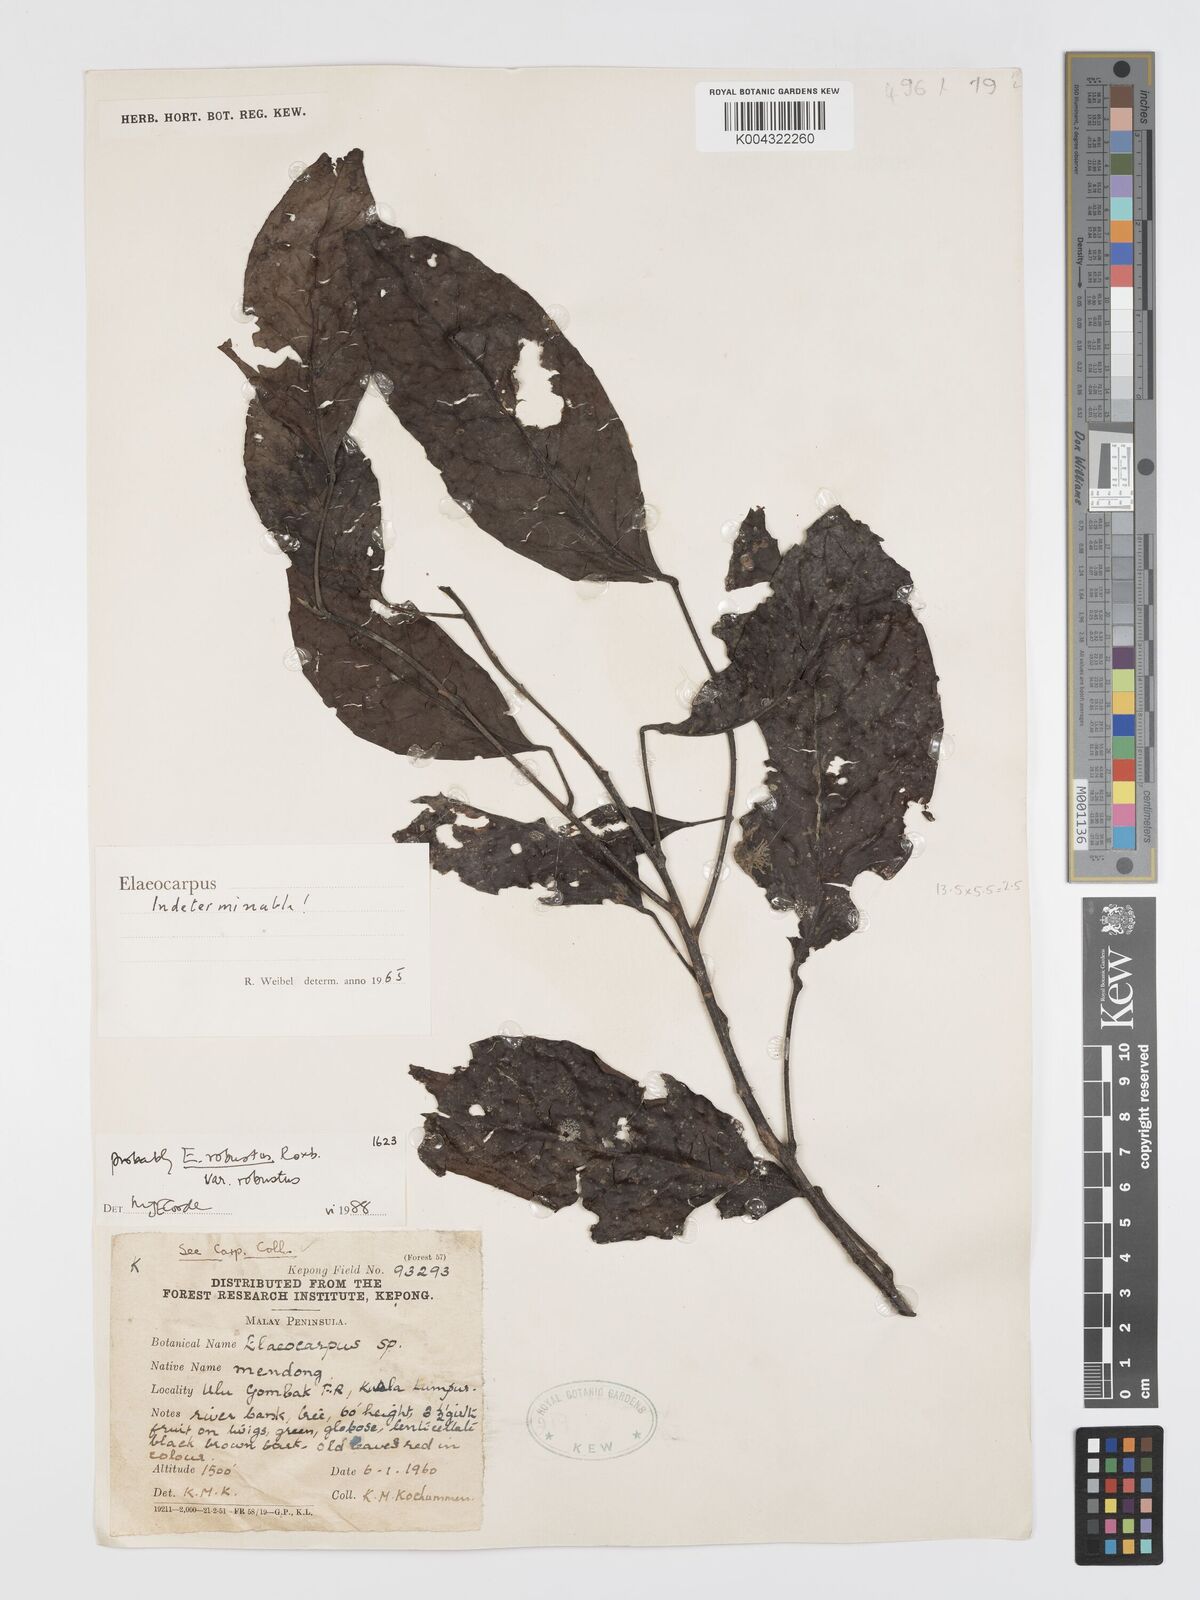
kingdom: Plantae
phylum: Tracheophyta
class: Magnoliopsida
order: Oxalidales
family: Elaeocarpaceae
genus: Elaeocarpus
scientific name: Elaeocarpus robustus
